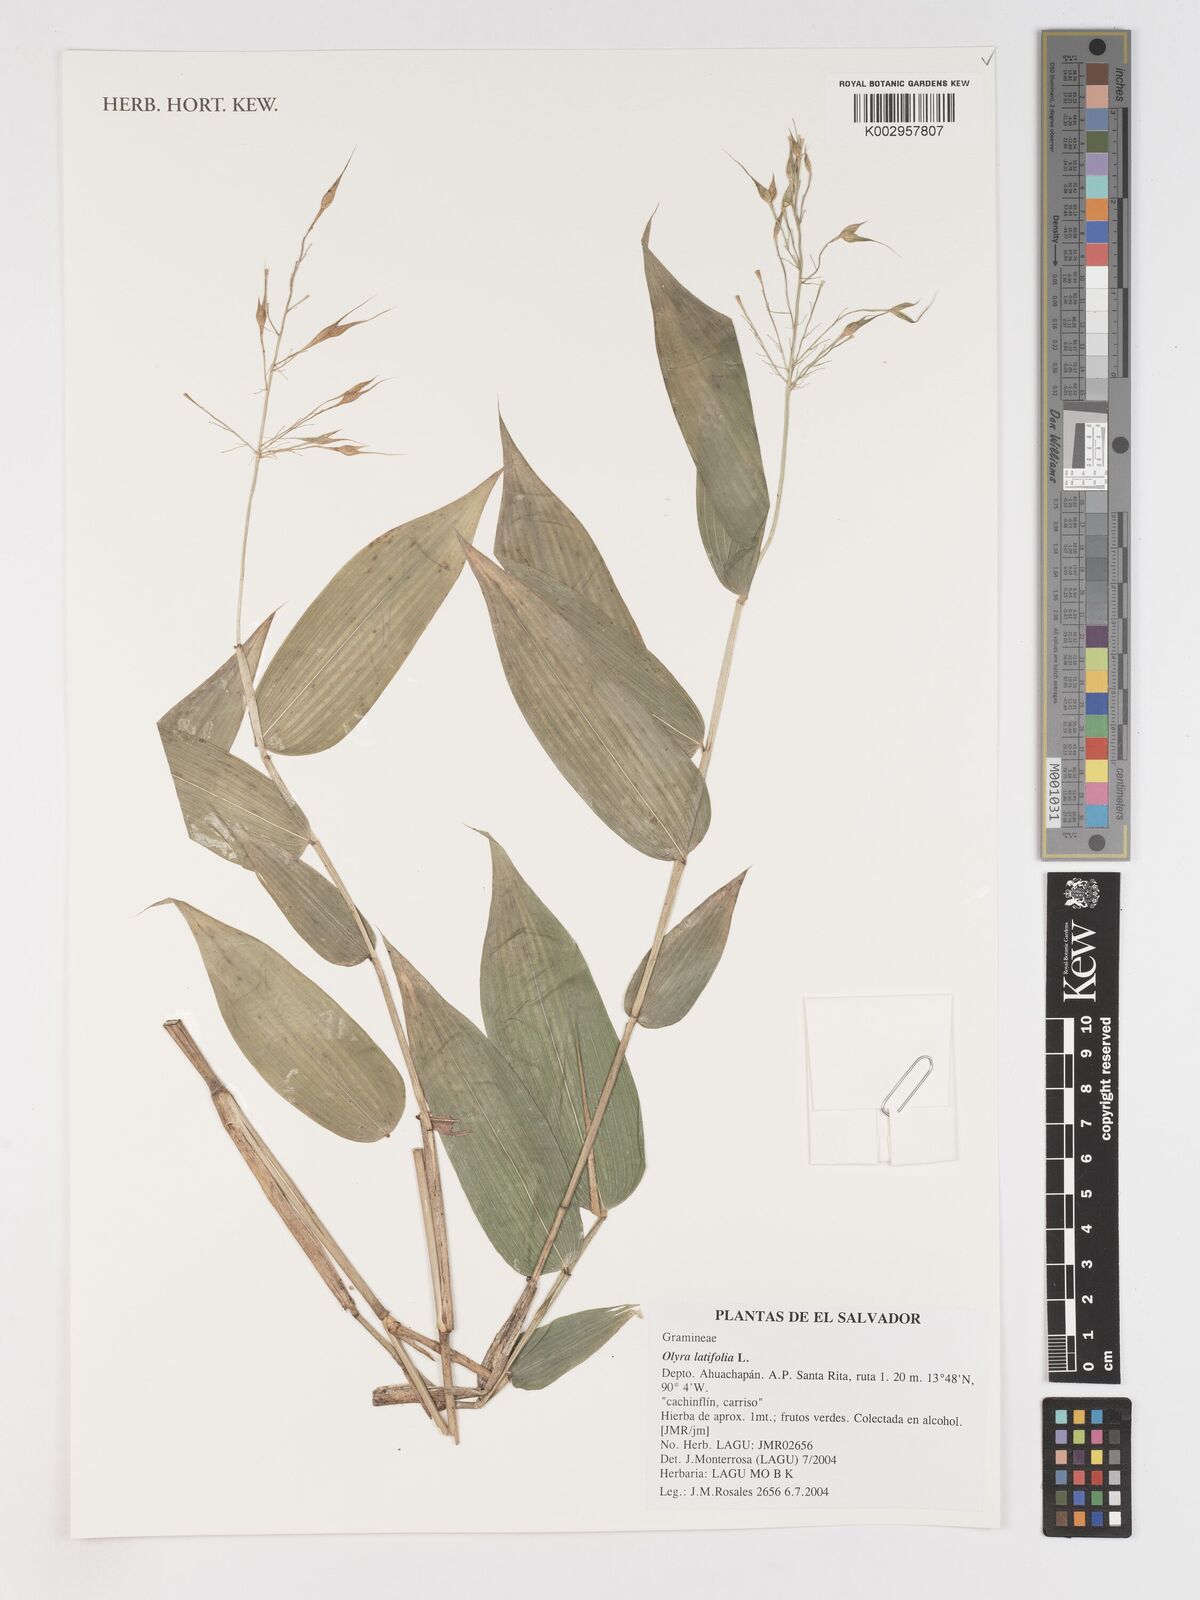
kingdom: Plantae
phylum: Tracheophyta
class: Liliopsida
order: Poales
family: Poaceae
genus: Olyra
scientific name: Olyra latifolia
